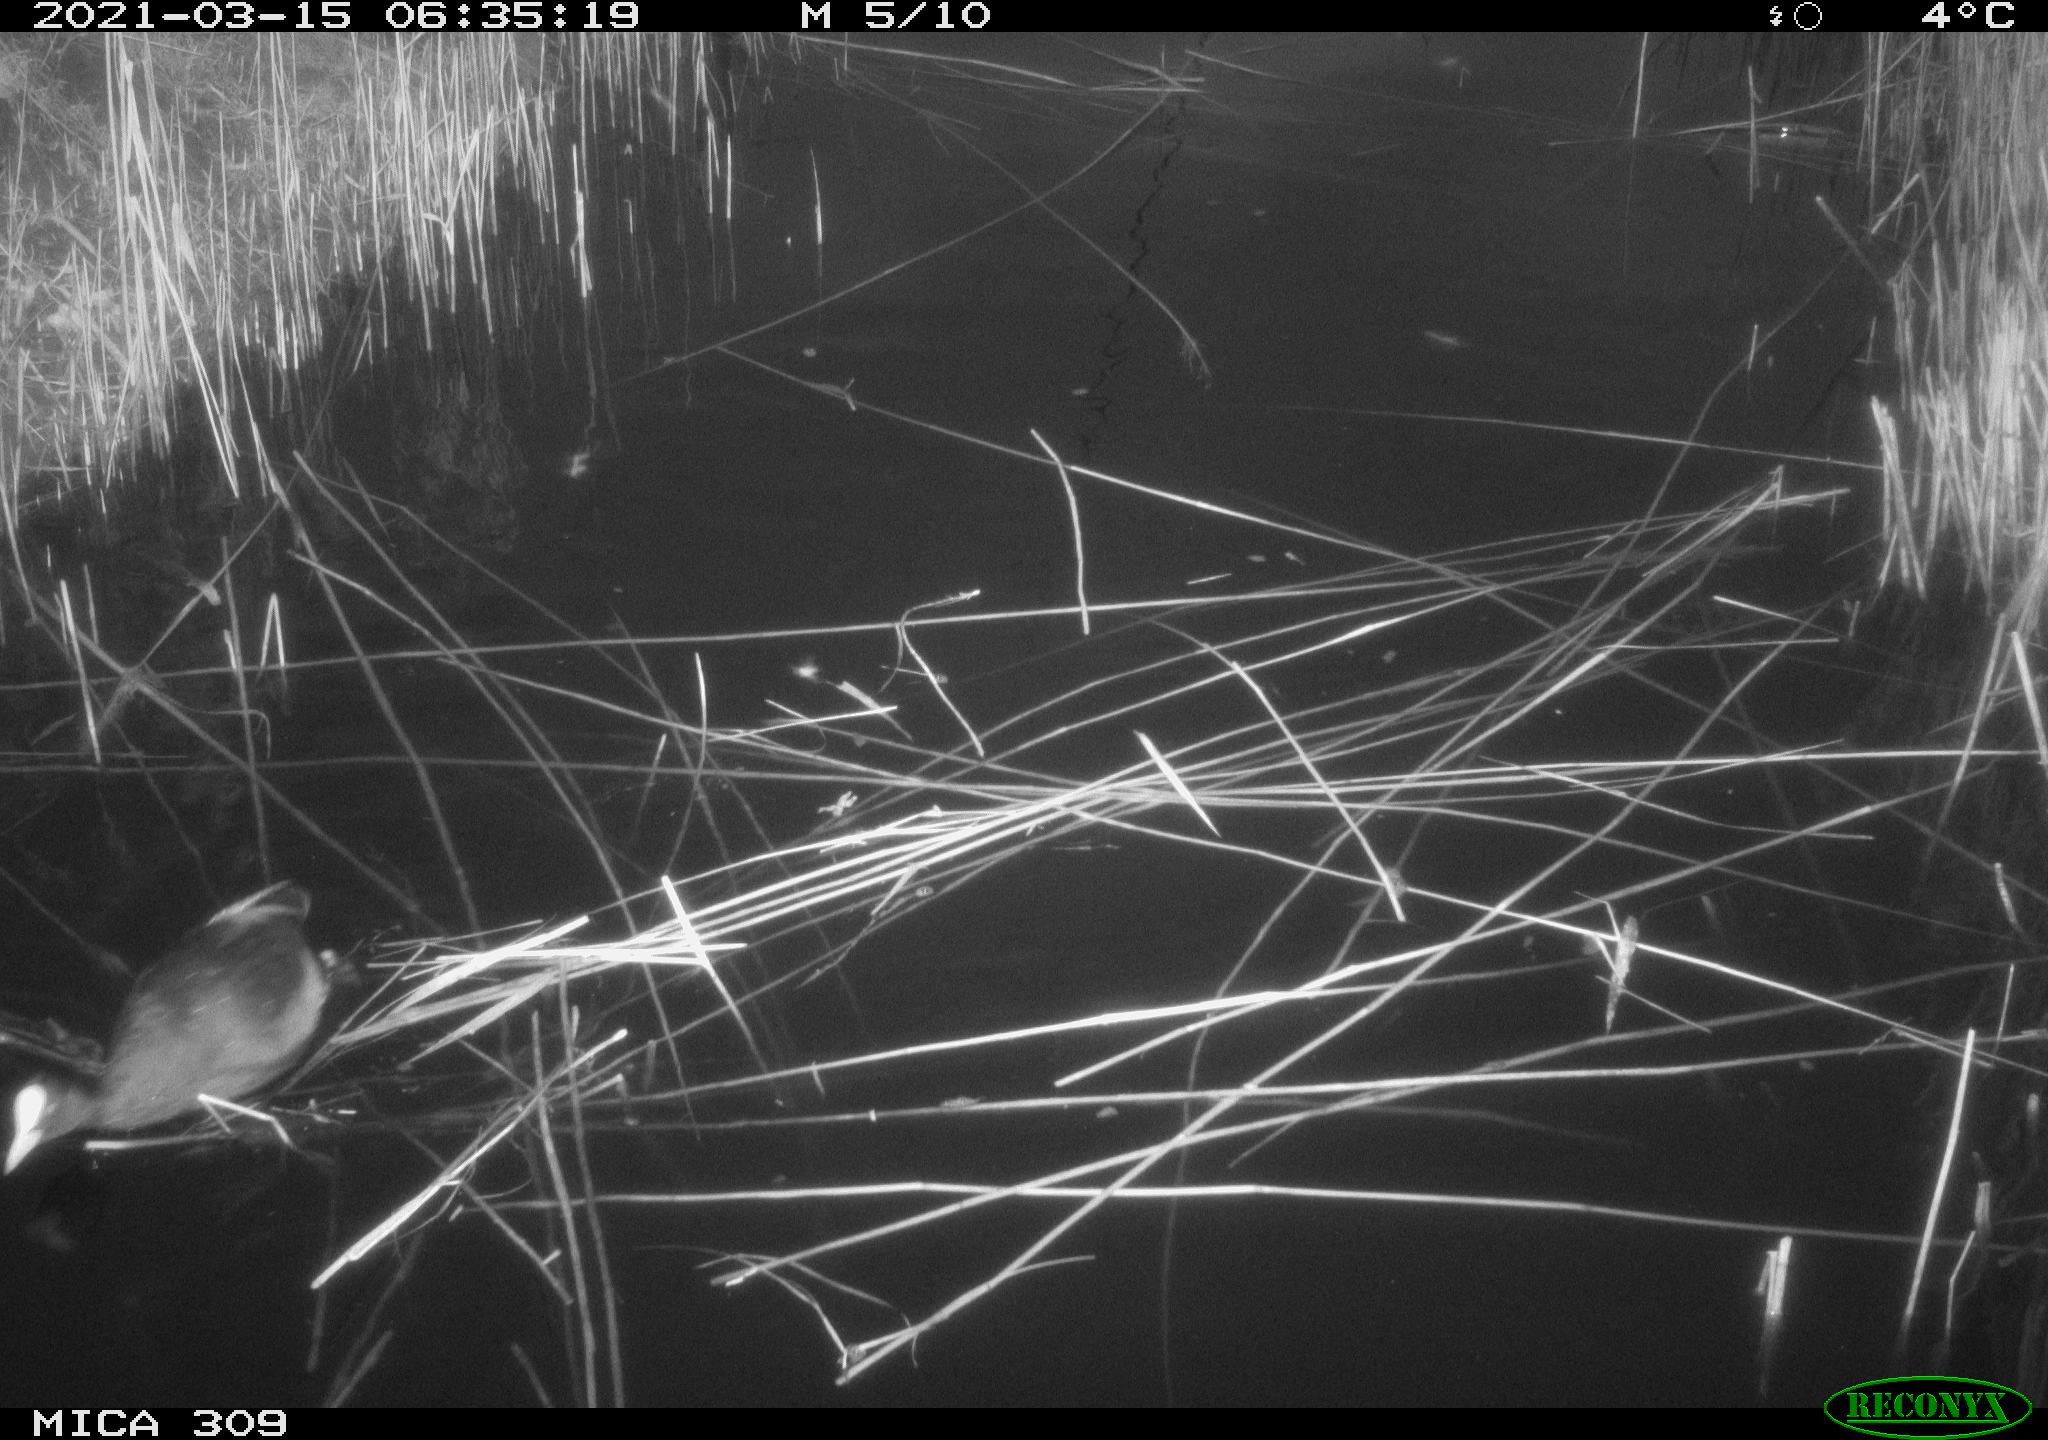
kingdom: Animalia
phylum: Chordata
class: Aves
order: Gruiformes
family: Rallidae
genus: Fulica
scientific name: Fulica atra
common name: Eurasian coot
